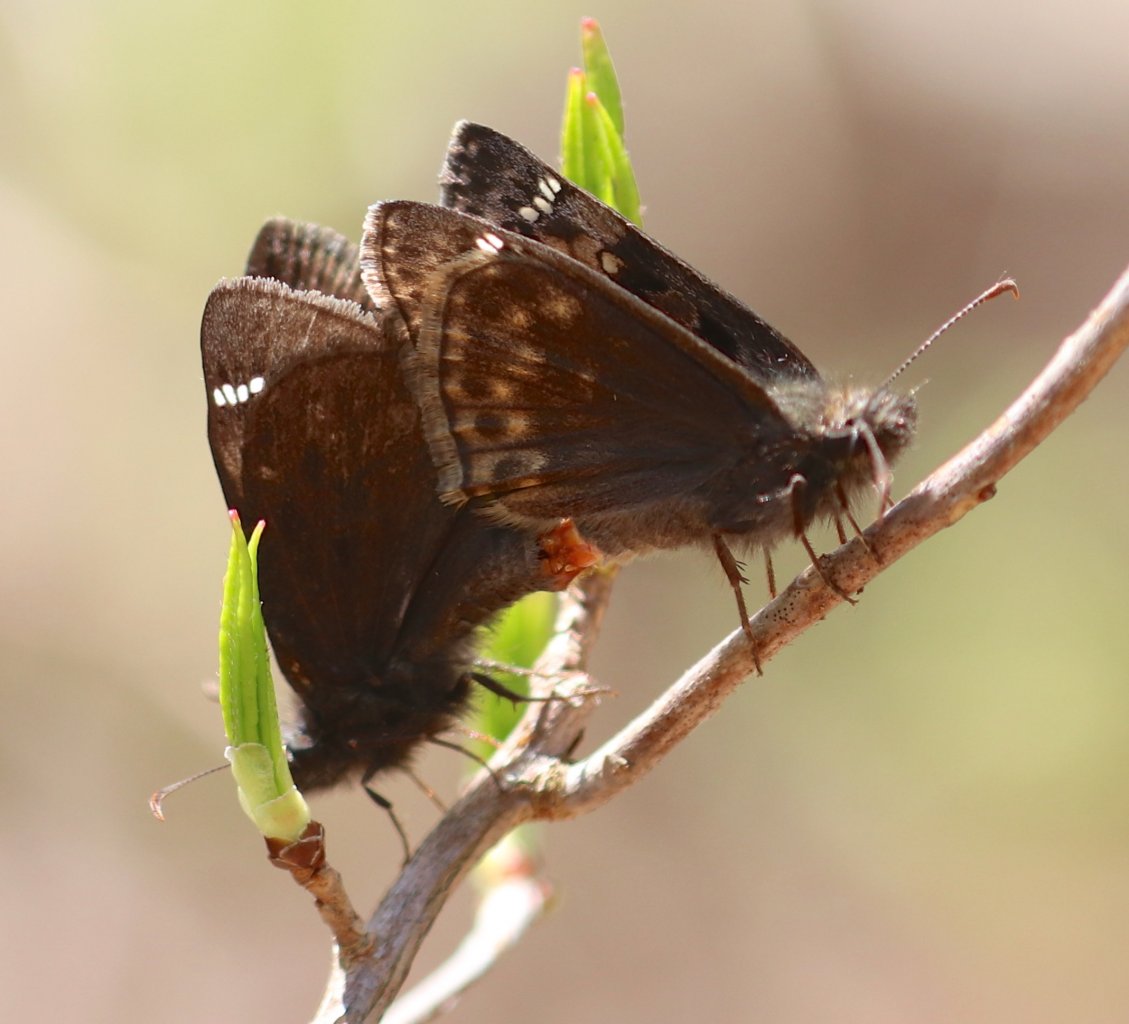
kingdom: Animalia
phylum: Arthropoda
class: Insecta
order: Lepidoptera
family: Hesperiidae
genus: Gesta
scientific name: Gesta
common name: Juvenal's Duskywing
